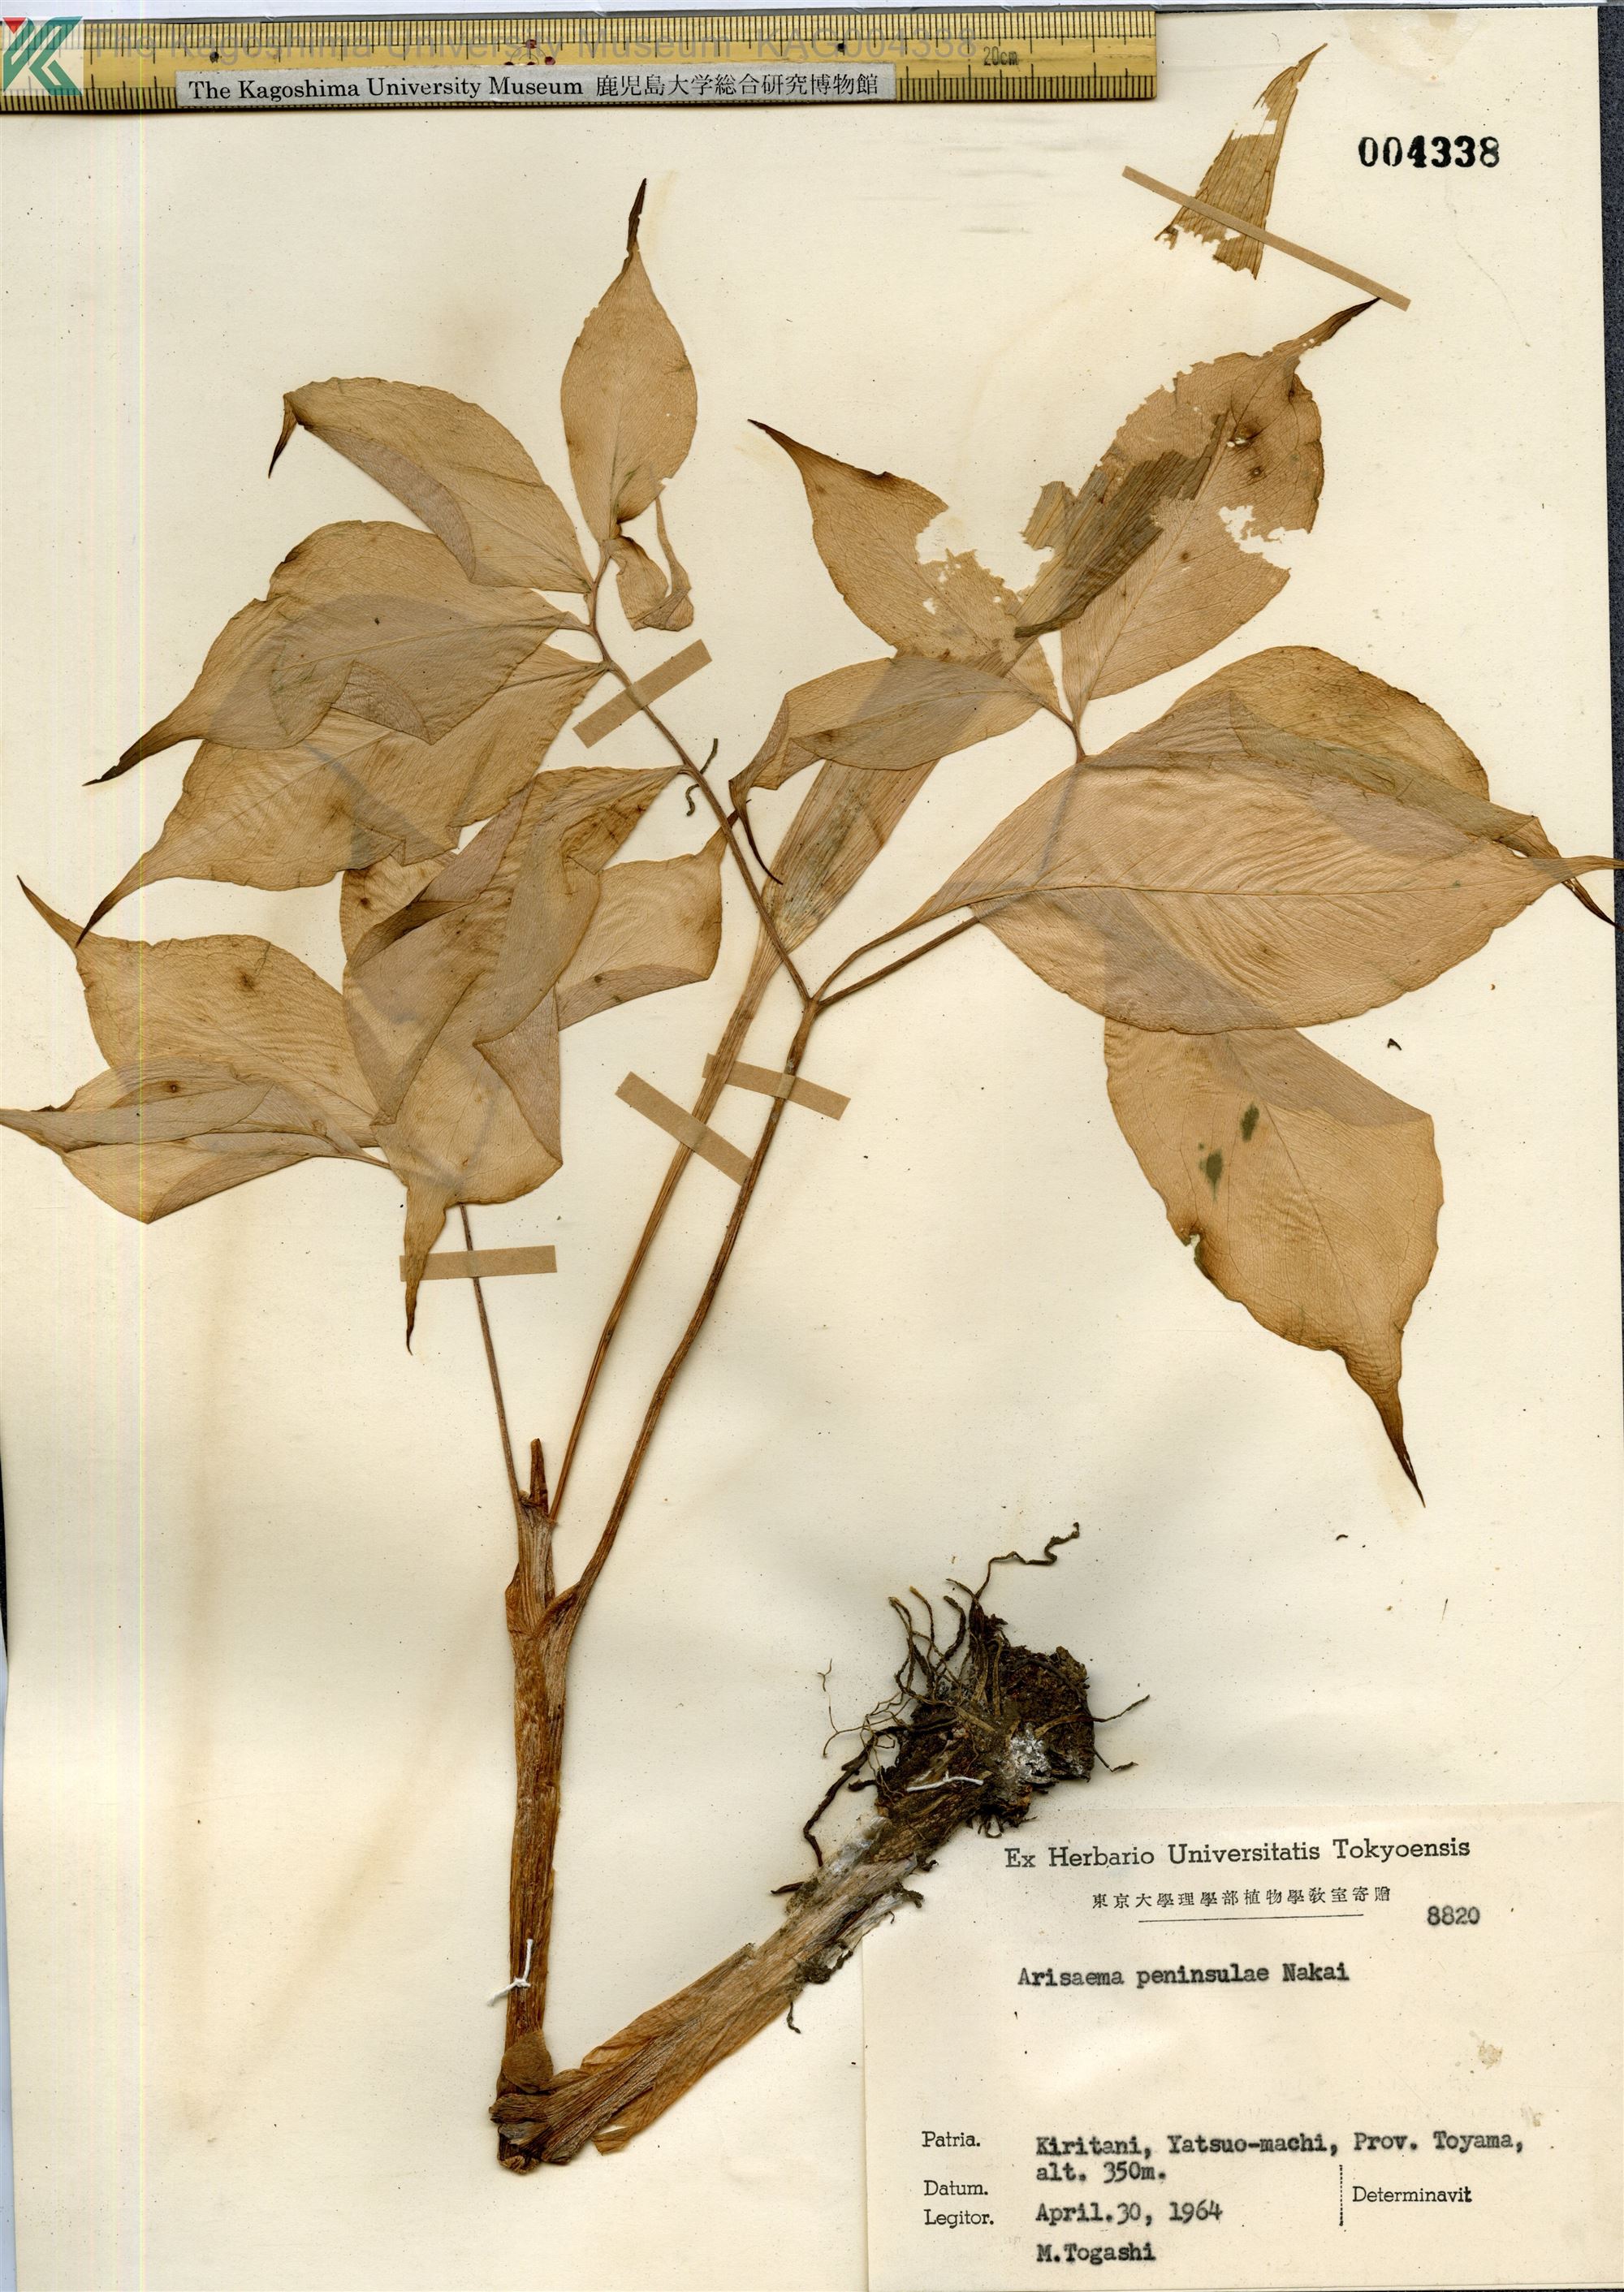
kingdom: Plantae
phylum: Tracheophyta
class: Liliopsida
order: Alismatales
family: Araceae
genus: Arisaema
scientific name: Arisaema angustatum
